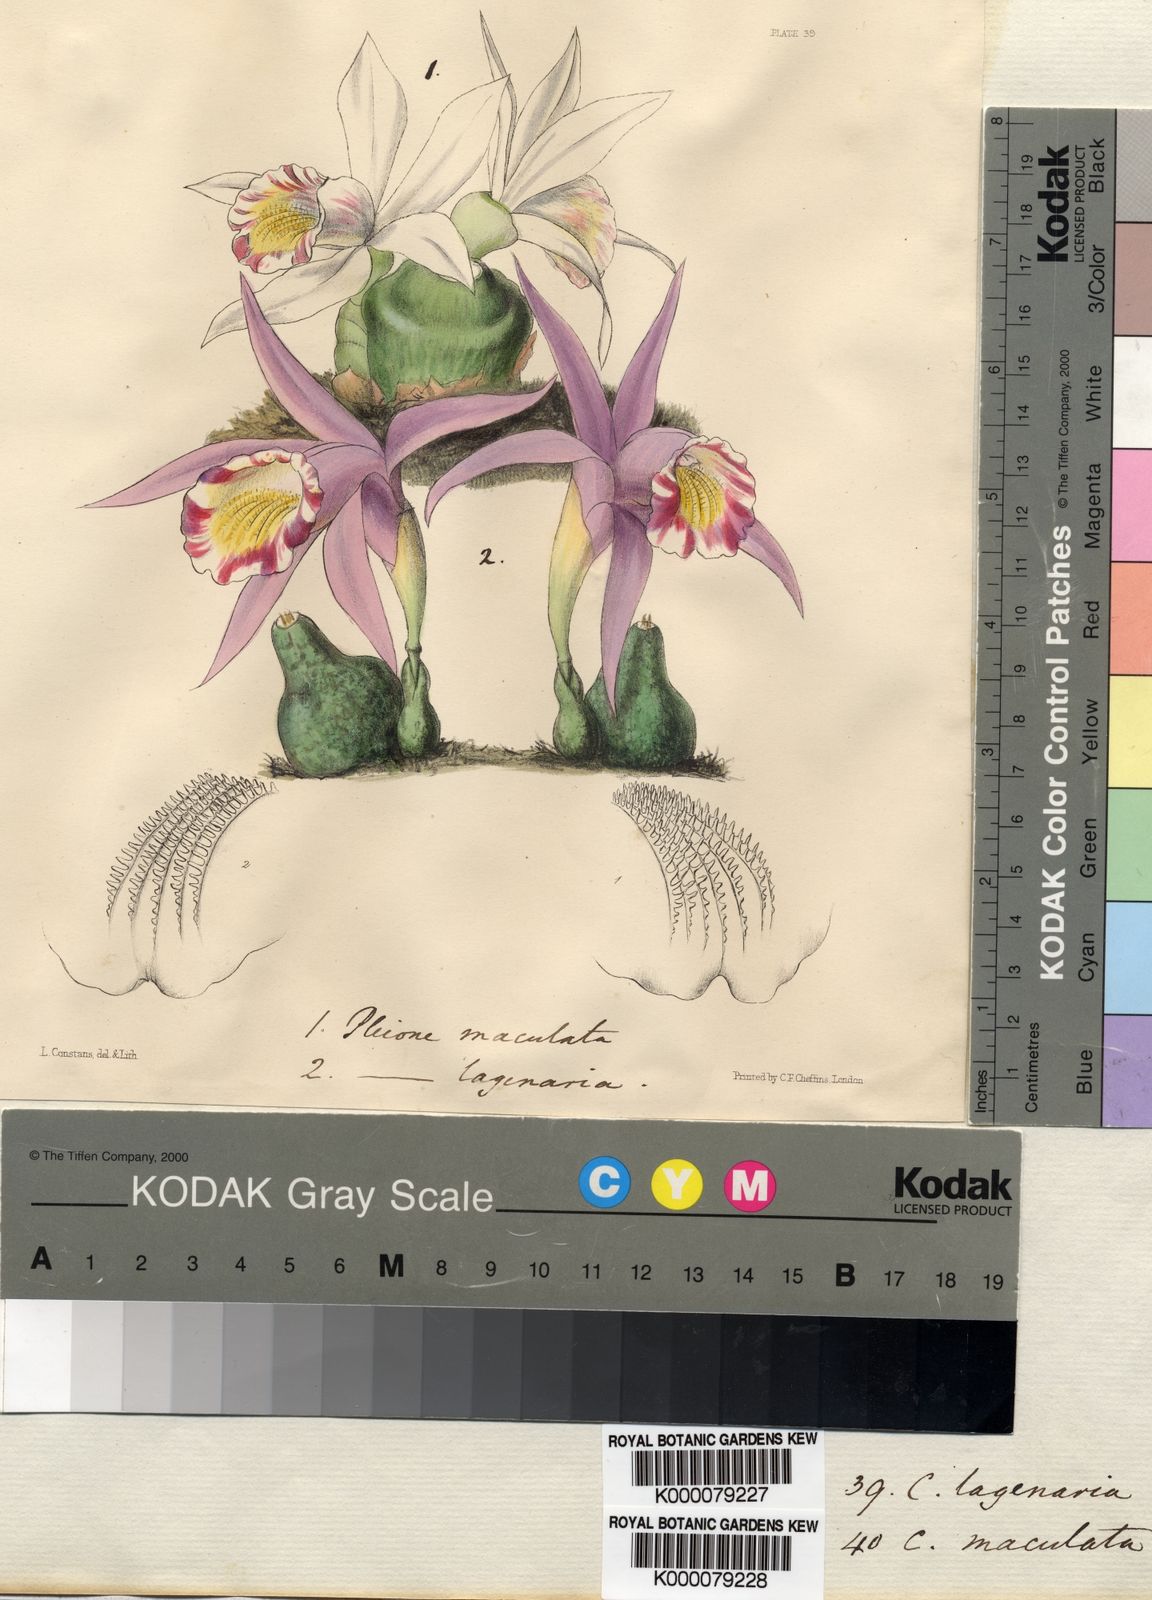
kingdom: Plantae
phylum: Tracheophyta
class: Liliopsida
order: Asparagales
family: Orchidaceae
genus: Pleione
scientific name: Pleione lagenaria
